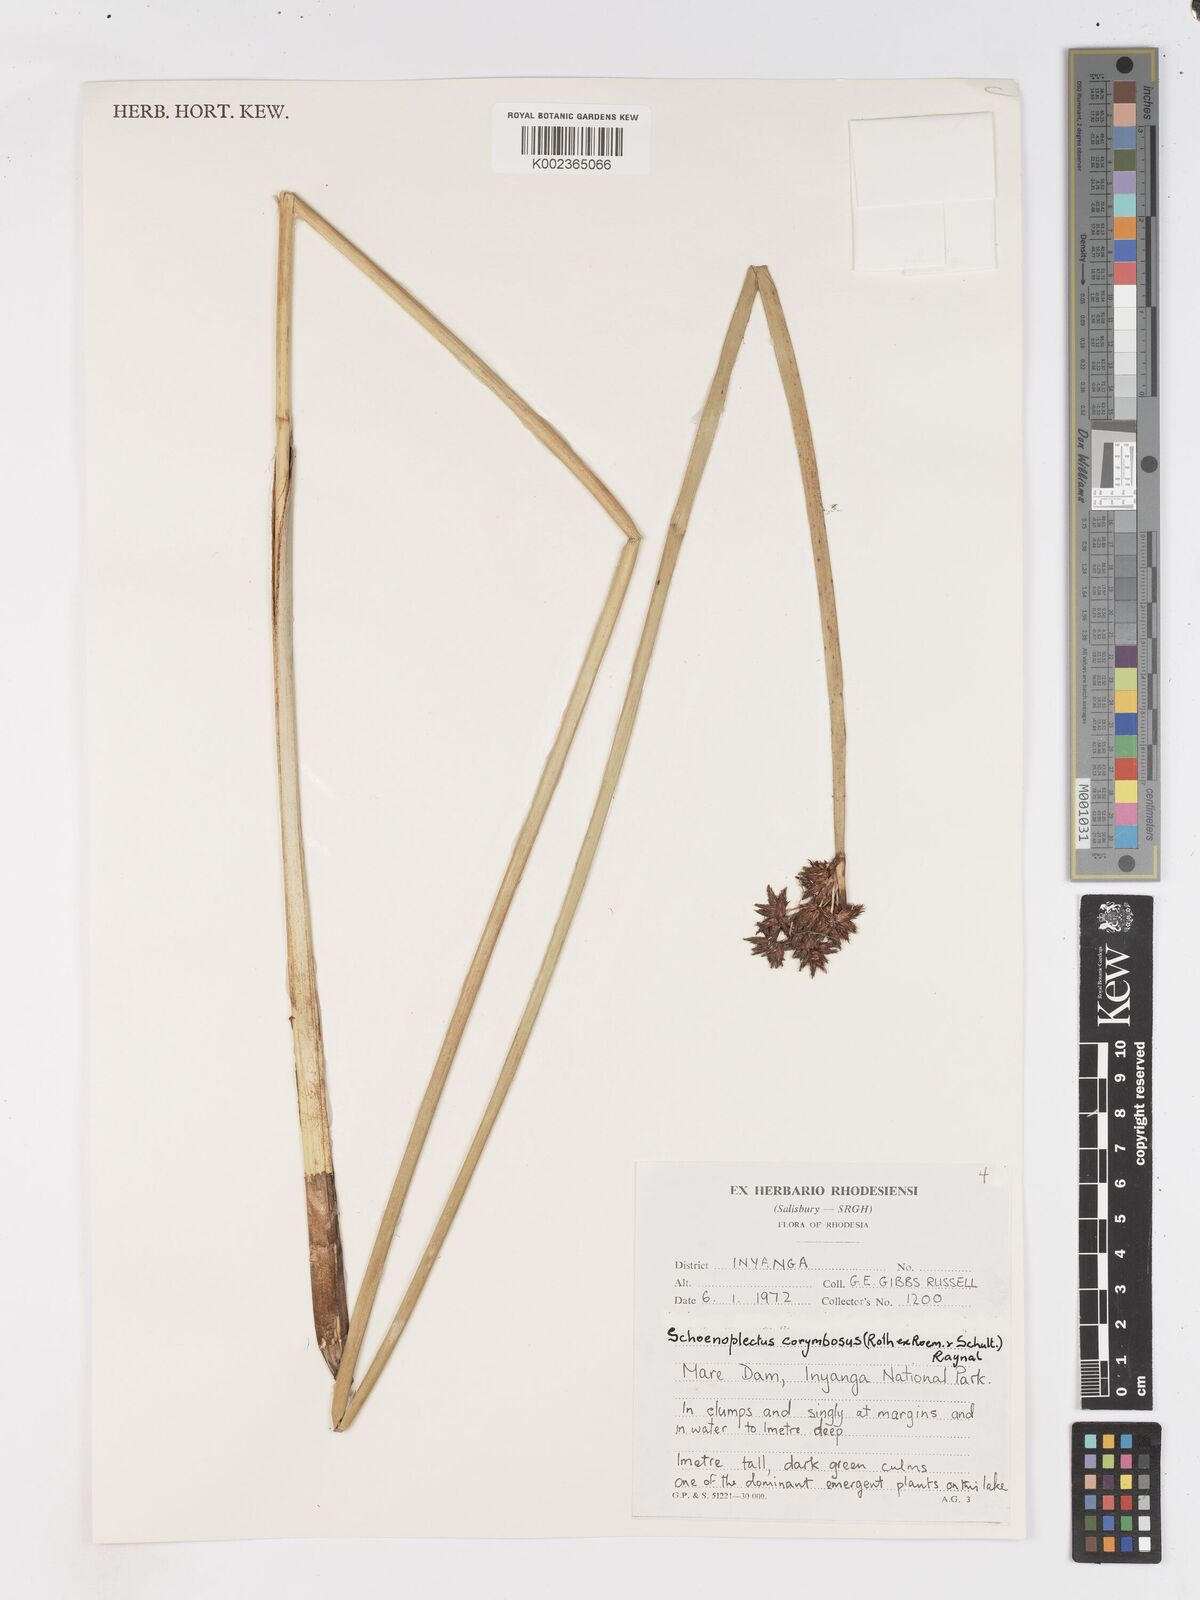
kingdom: Plantae
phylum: Tracheophyta
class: Liliopsida
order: Poales
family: Cyperaceae
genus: Schoenoplectiella
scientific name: Schoenoplectiella brachyceras
